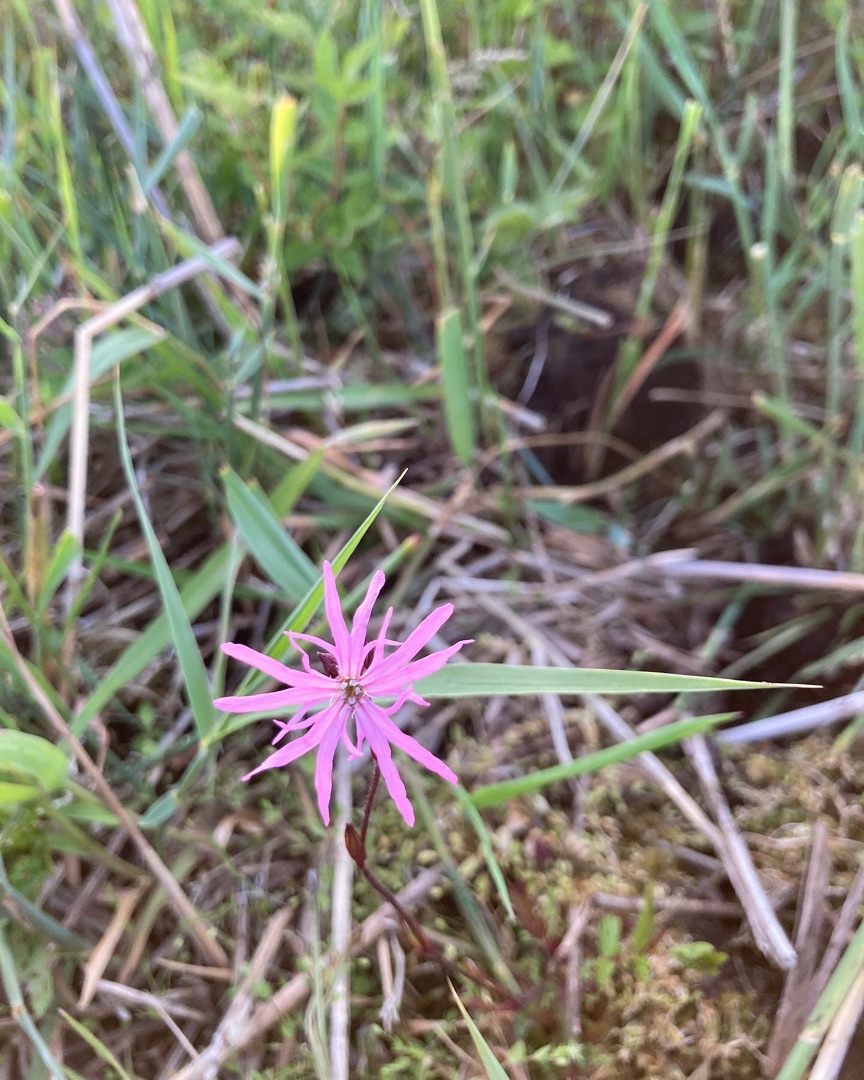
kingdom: Plantae
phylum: Tracheophyta
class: Magnoliopsida
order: Caryophyllales
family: Caryophyllaceae
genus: Silene
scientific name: Silene flos-cuculi
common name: Trævlekrone
